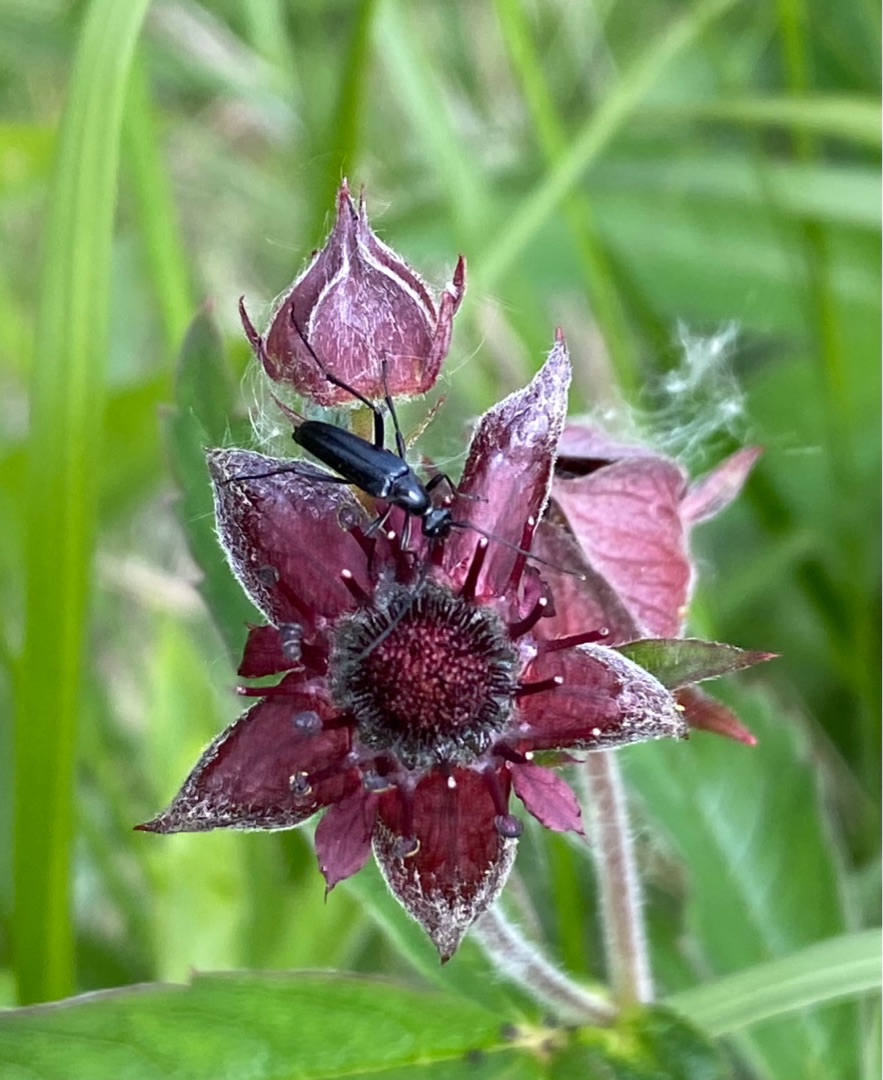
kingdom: Animalia
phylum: Arthropoda
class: Insecta
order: Coleoptera
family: Cerambycidae
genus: Stenurella
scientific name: Stenurella nigra
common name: Rødbuget spidsbuk
